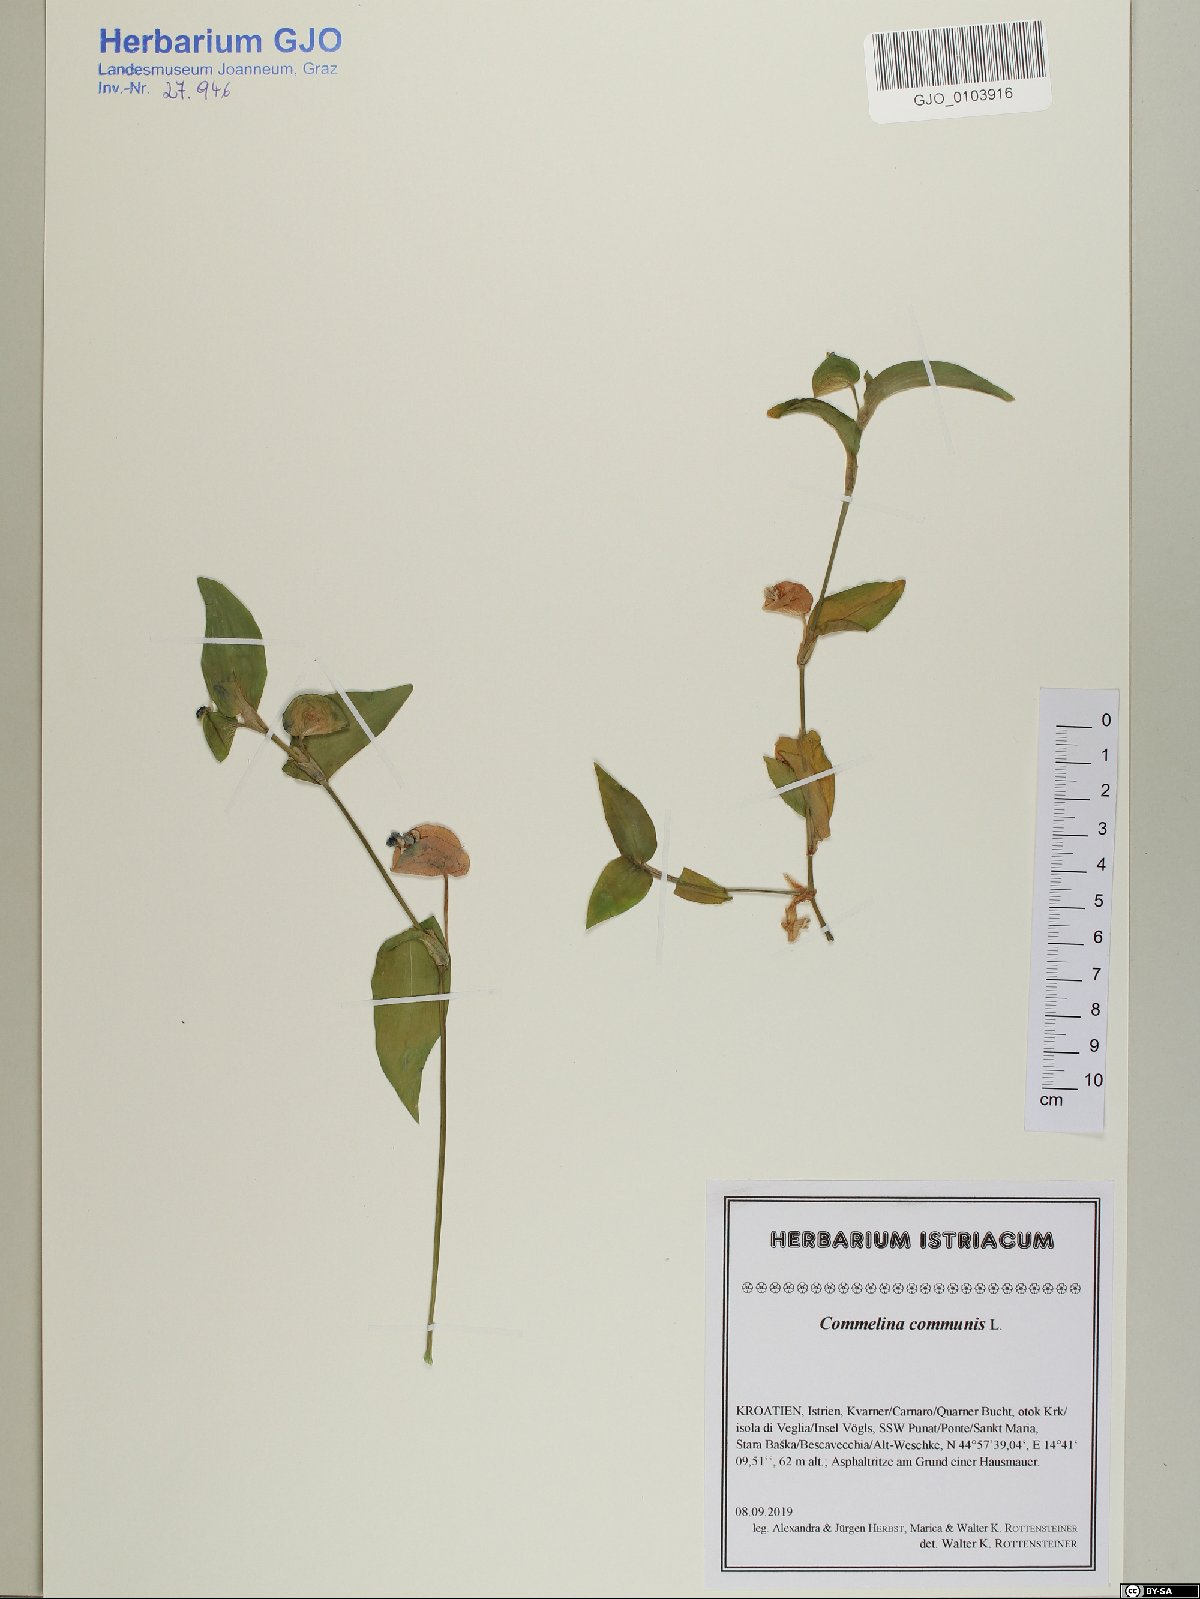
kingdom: Plantae
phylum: Tracheophyta
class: Liliopsida
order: Commelinales
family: Commelinaceae
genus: Commelina
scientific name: Commelina communis
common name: Asiatic dayflower
